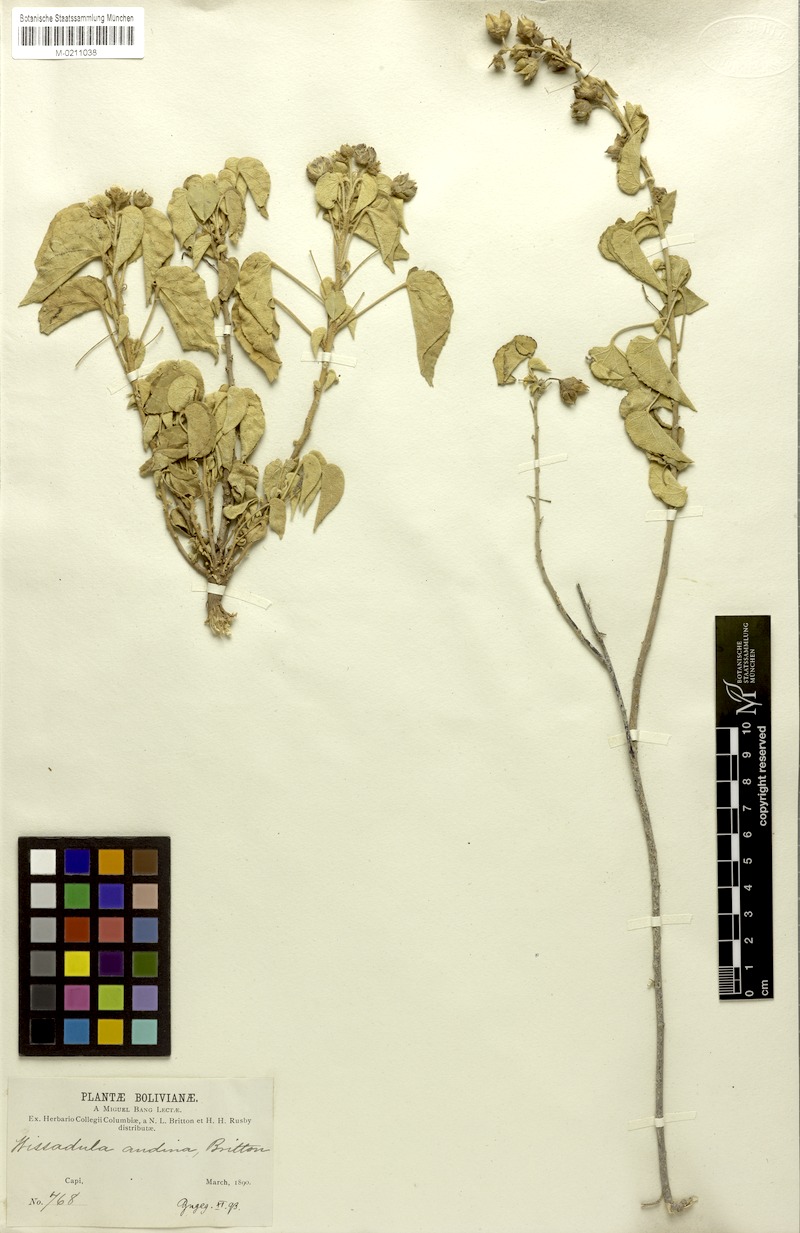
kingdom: Plantae
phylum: Tracheophyta
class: Magnoliopsida
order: Malvales
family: Malvaceae
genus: Wissadula
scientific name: Wissadula andina
